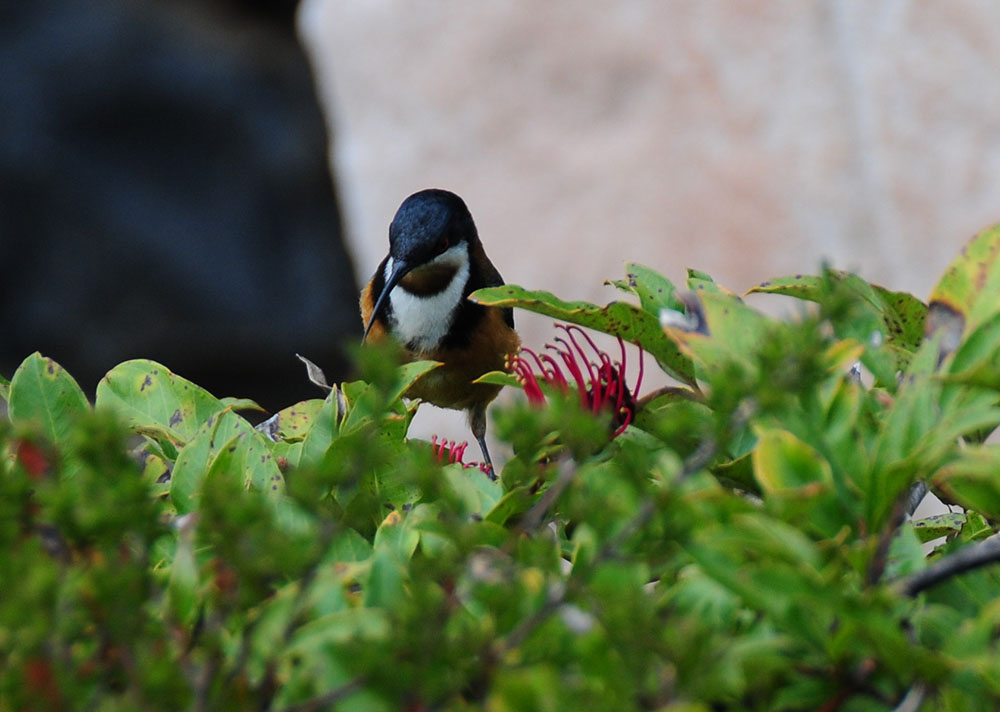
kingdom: Animalia
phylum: Chordata
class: Aves
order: Passeriformes
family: Meliphagidae
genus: Acanthorhynchus
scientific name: Acanthorhynchus tenuirostris
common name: Eastern spinebill
